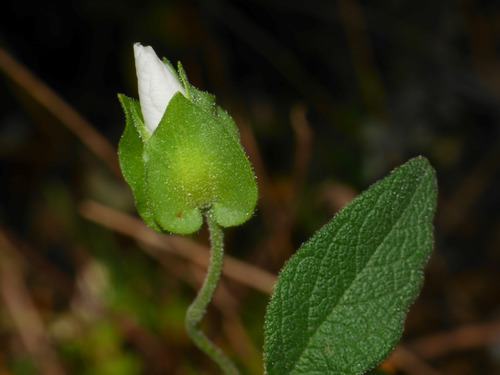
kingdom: Plantae
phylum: Tracheophyta
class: Magnoliopsida
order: Malvales
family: Cistaceae
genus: Cistus
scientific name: Cistus salviifolius
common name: Salvia cistus
